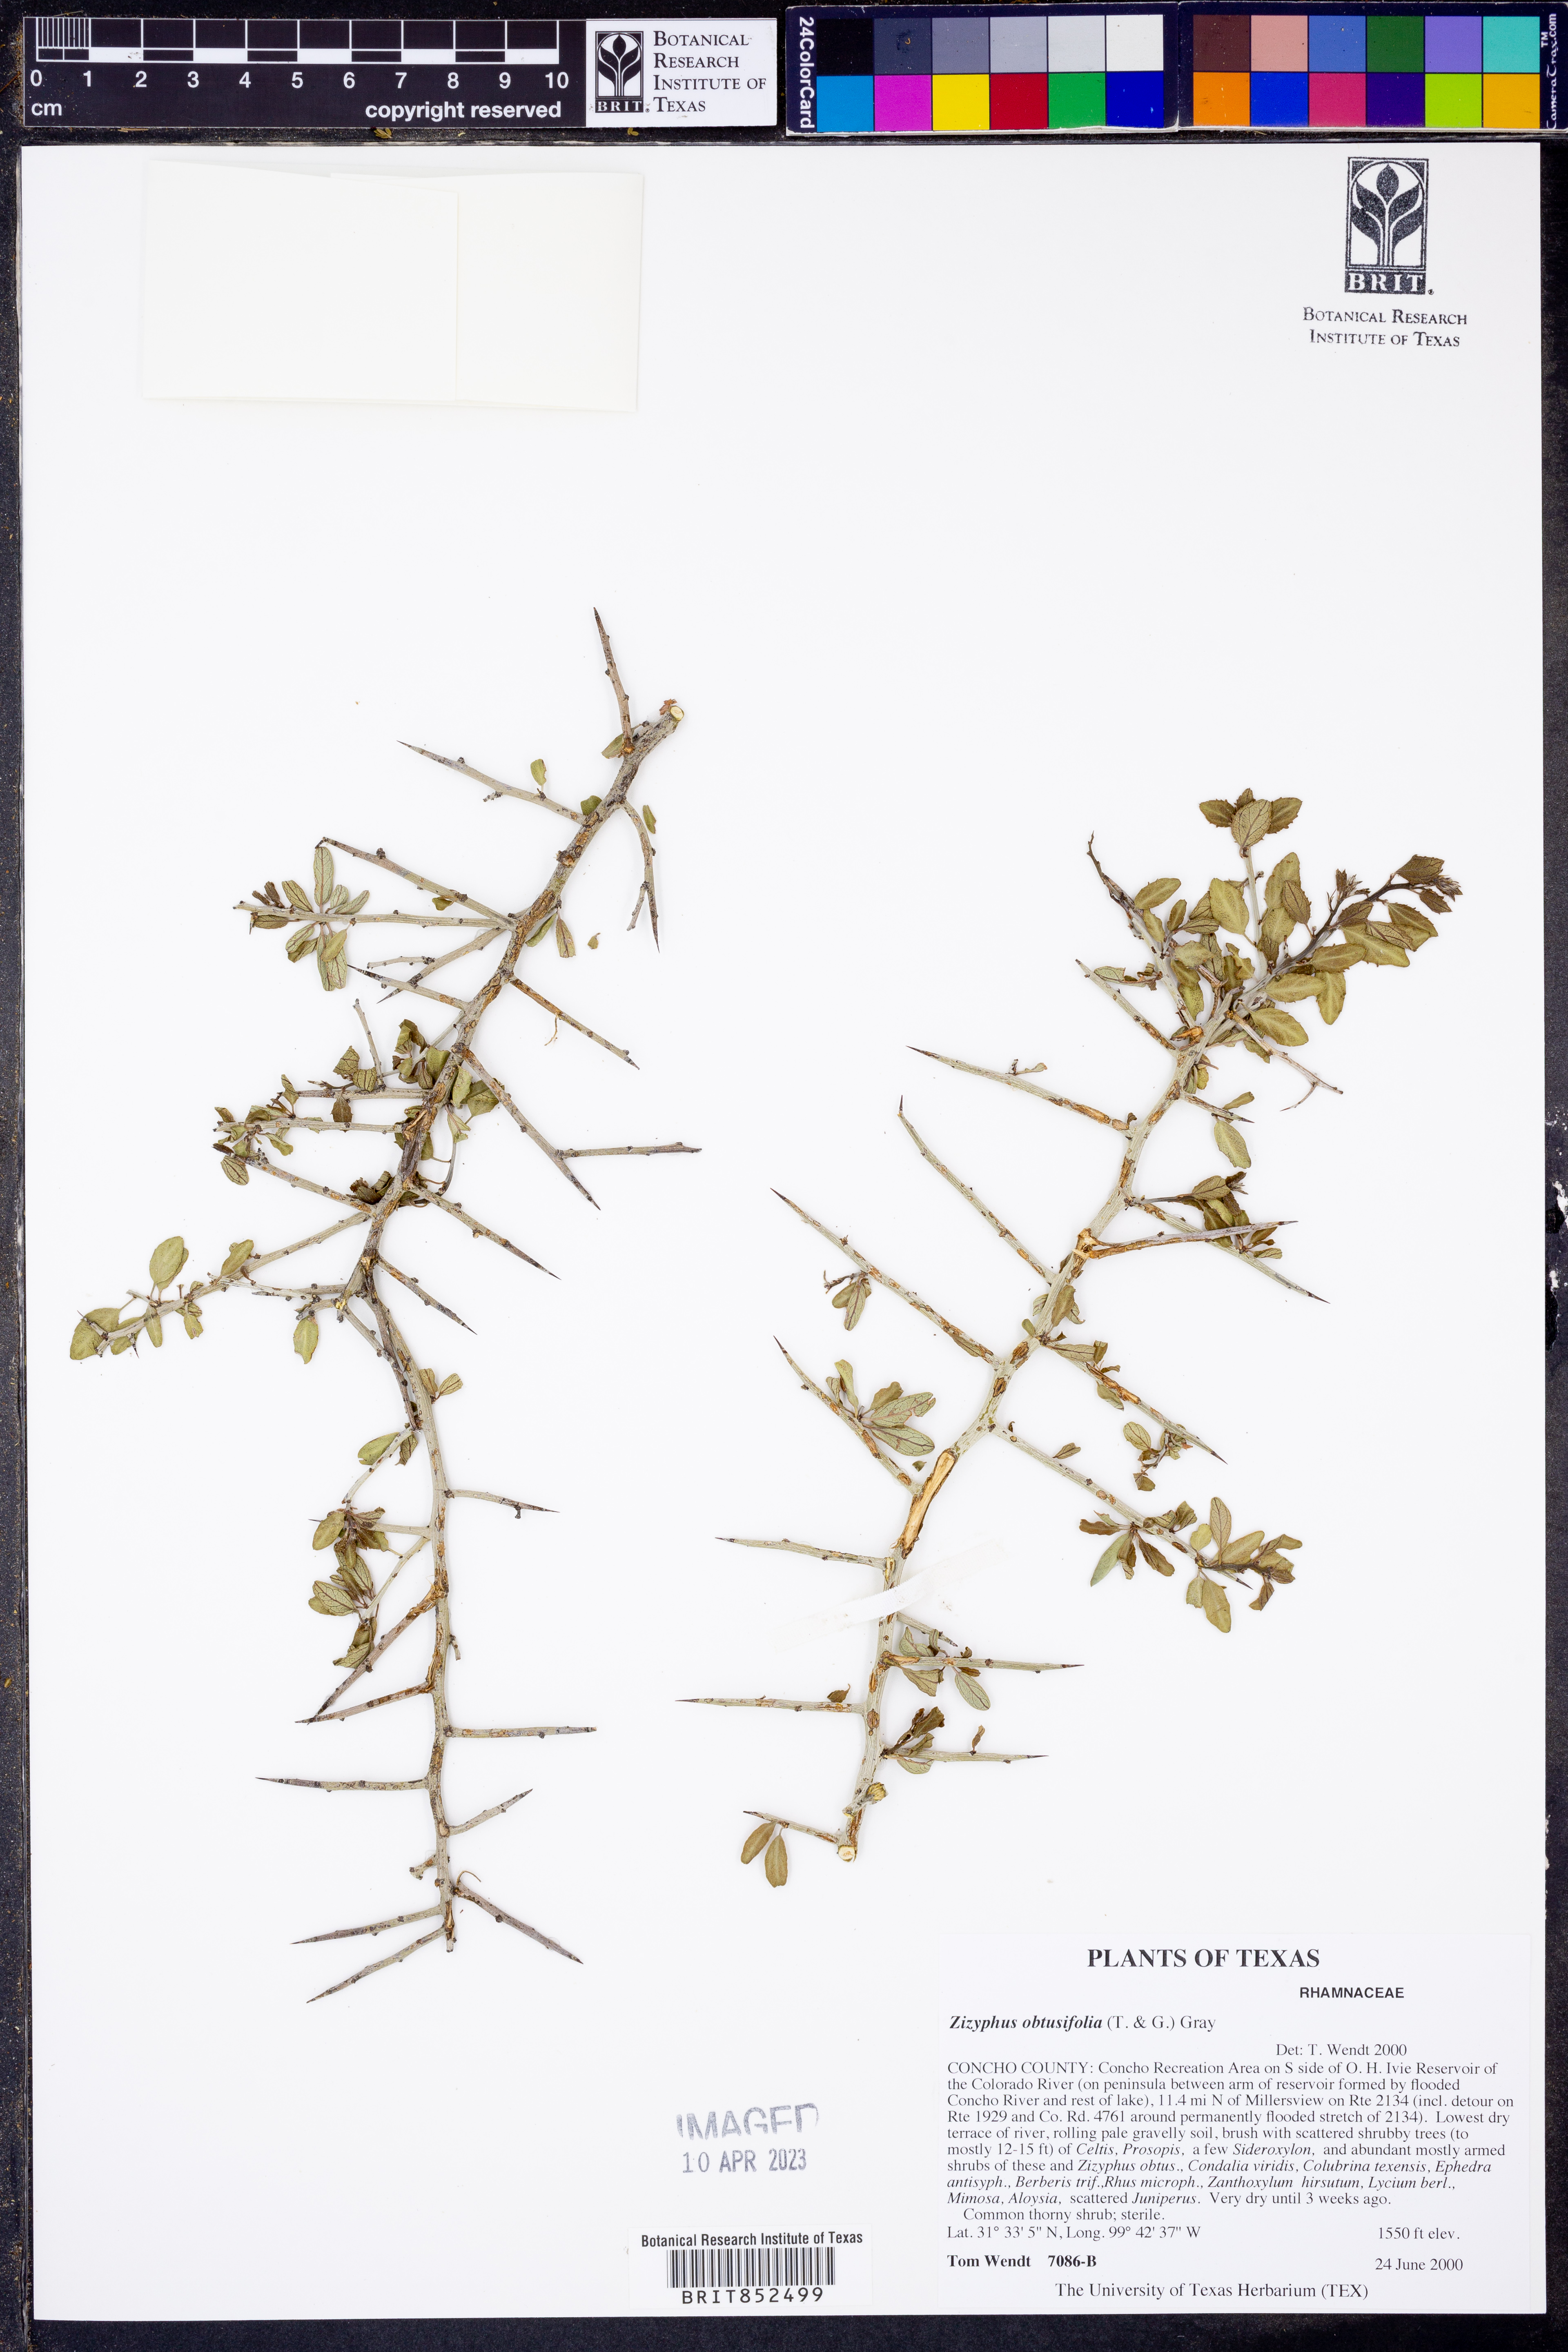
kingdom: Plantae
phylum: Tracheophyta
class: Magnoliopsida
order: Rosales
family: Rhamnaceae
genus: Sarcomphalus
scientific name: Sarcomphalus obtusifolius
